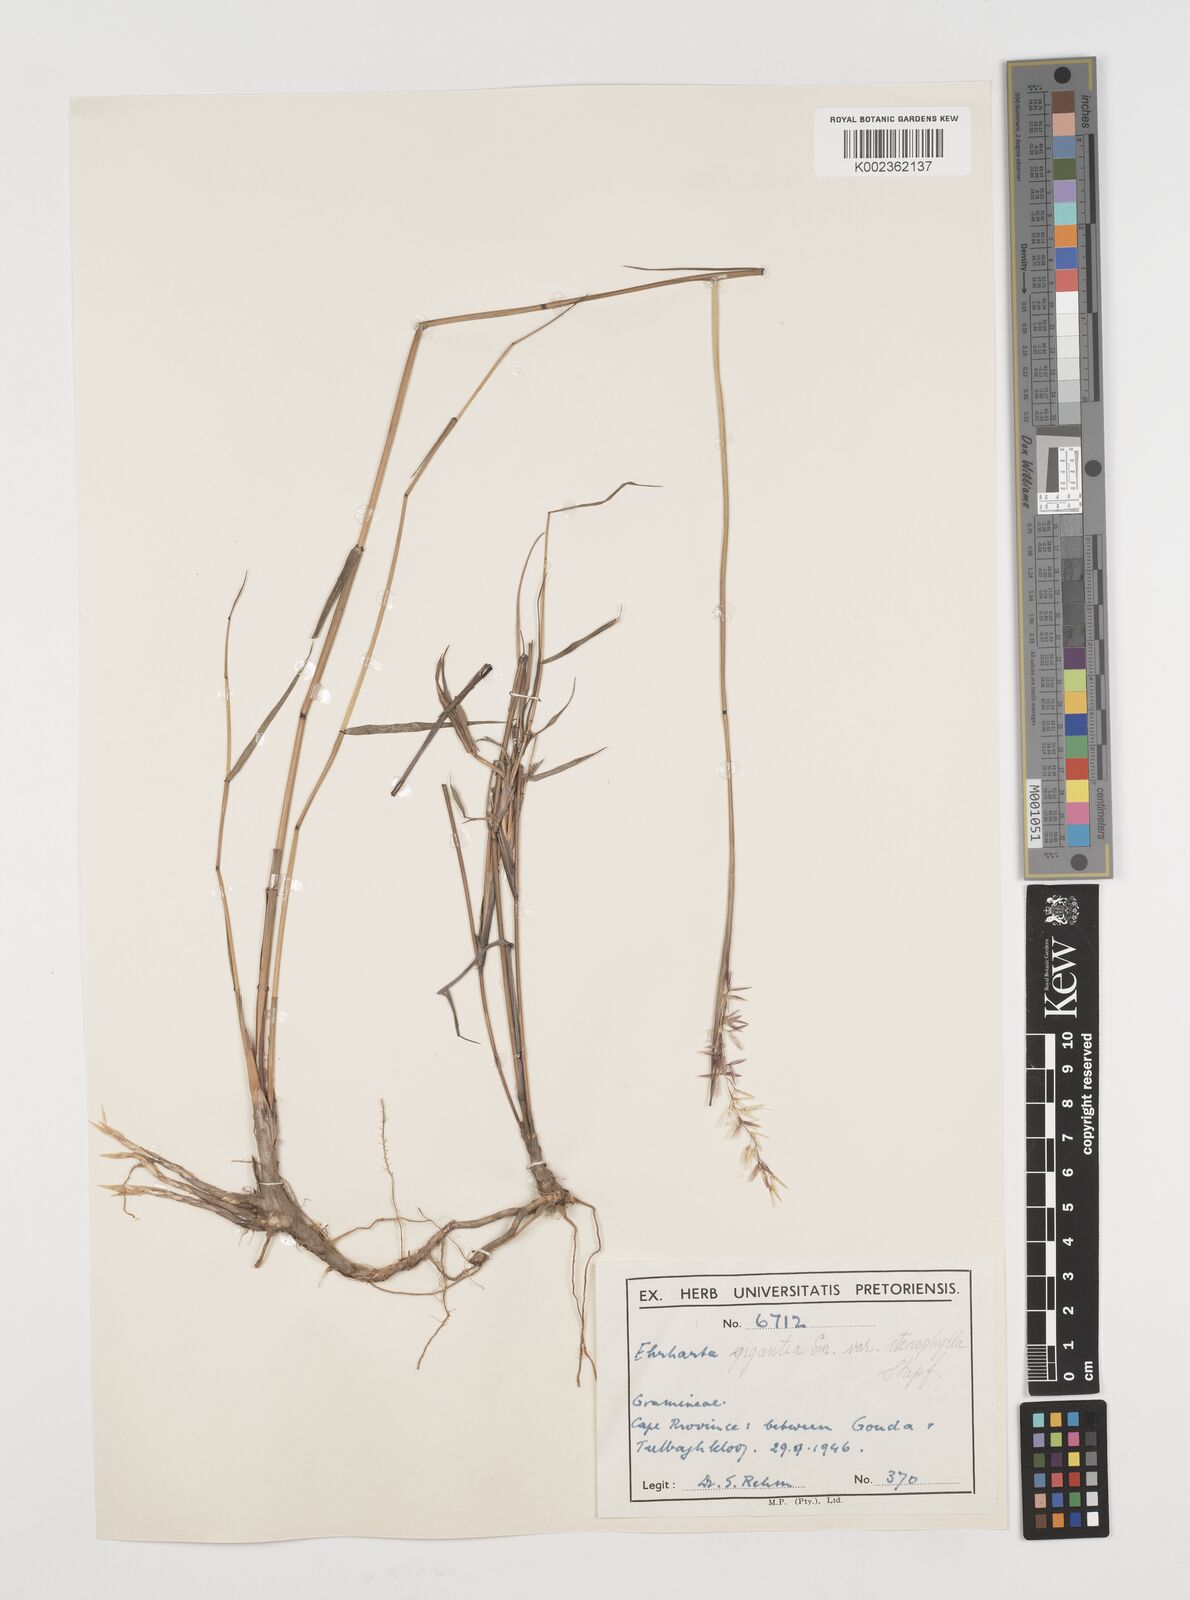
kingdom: Plantae
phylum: Tracheophyta
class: Liliopsida
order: Poales
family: Poaceae
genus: Ehrharta
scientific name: Ehrharta thunbergii
